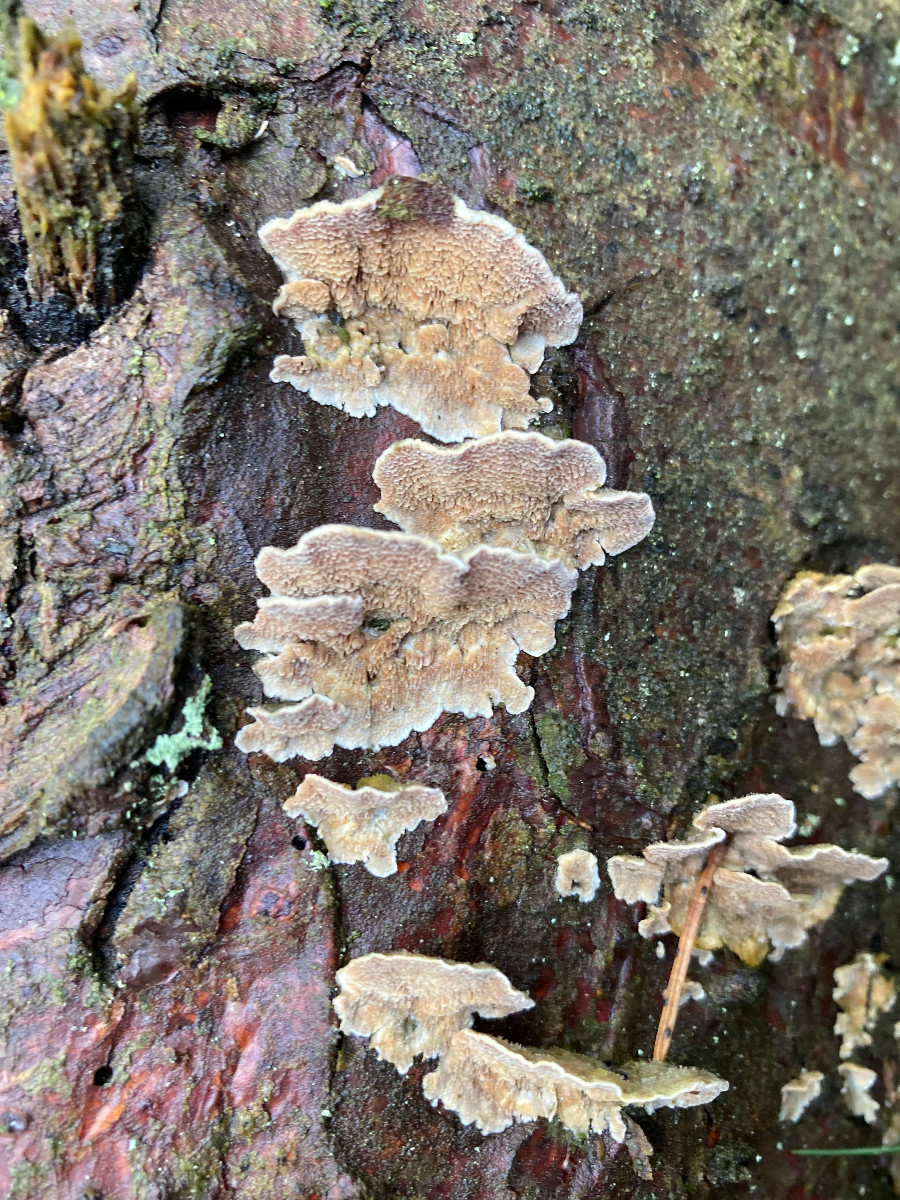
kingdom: Fungi
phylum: Basidiomycota
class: Agaricomycetes
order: Polyporales
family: Polyporaceae
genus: Trichaptum
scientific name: Trichaptum
